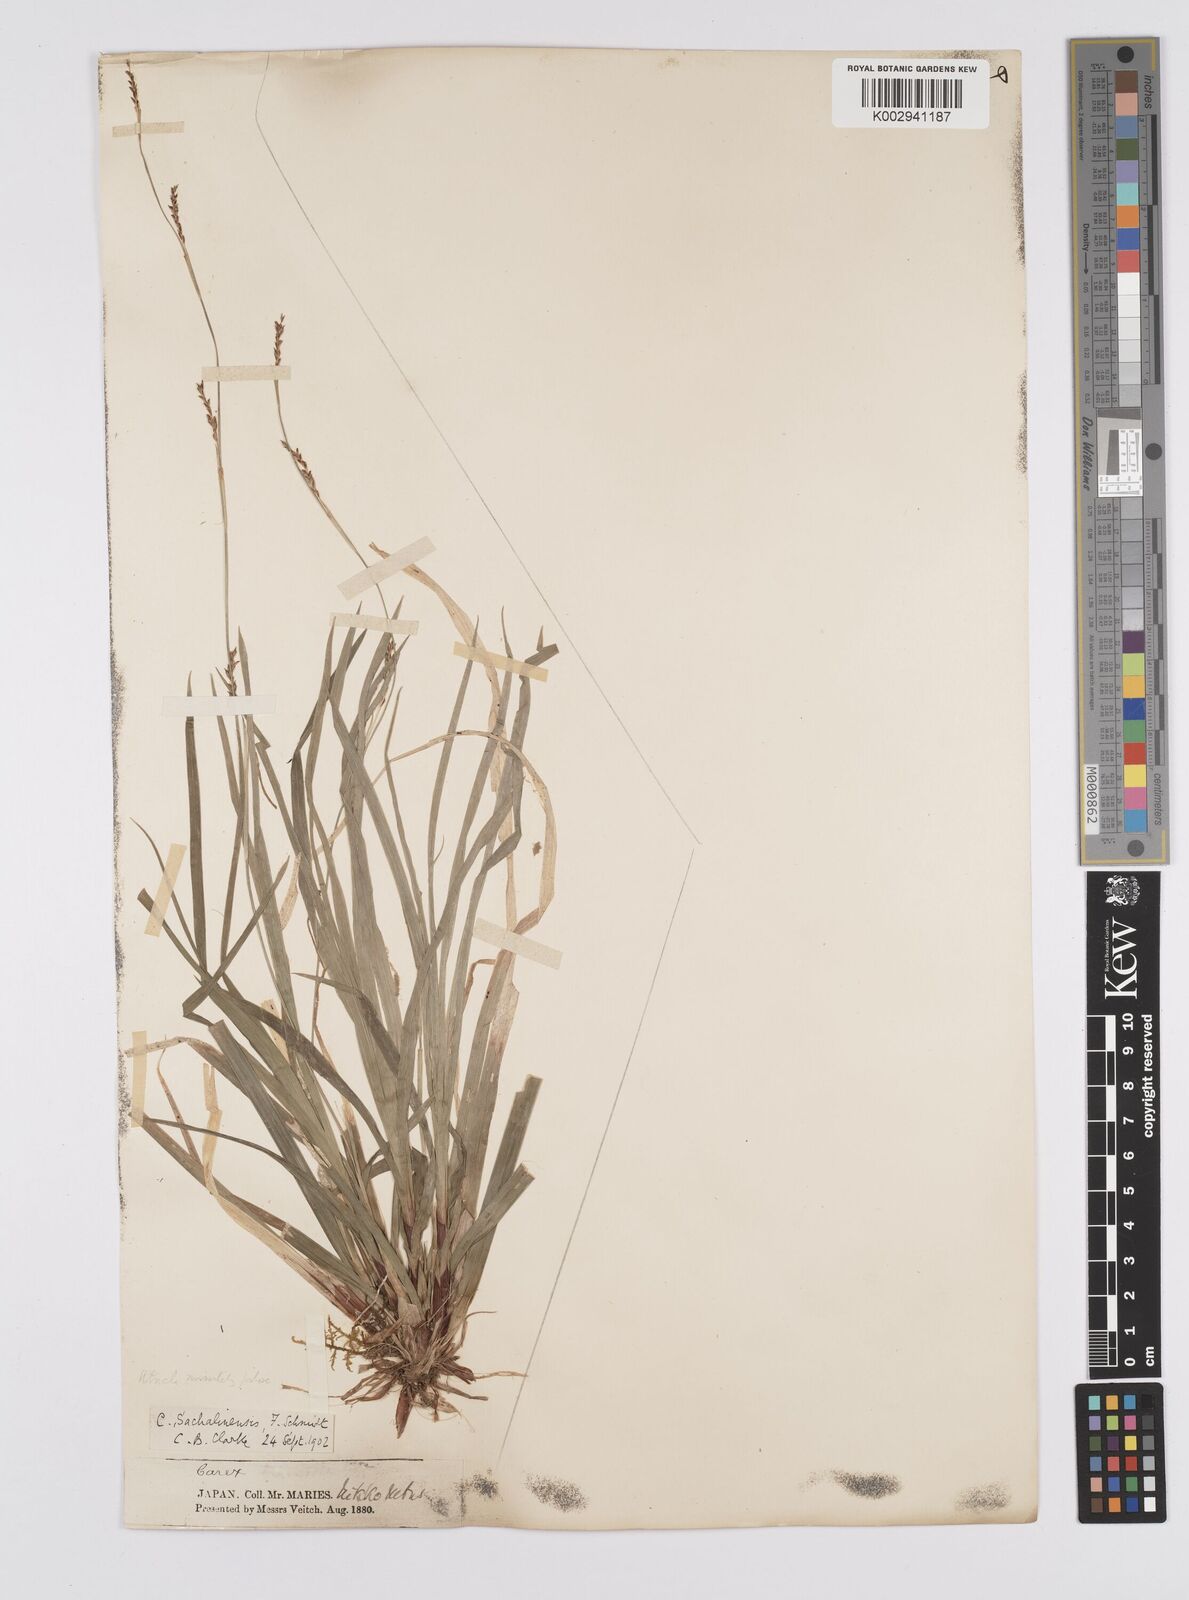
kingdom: Plantae
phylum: Tracheophyta
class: Liliopsida
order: Poales
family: Cyperaceae
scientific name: Cyperaceae
